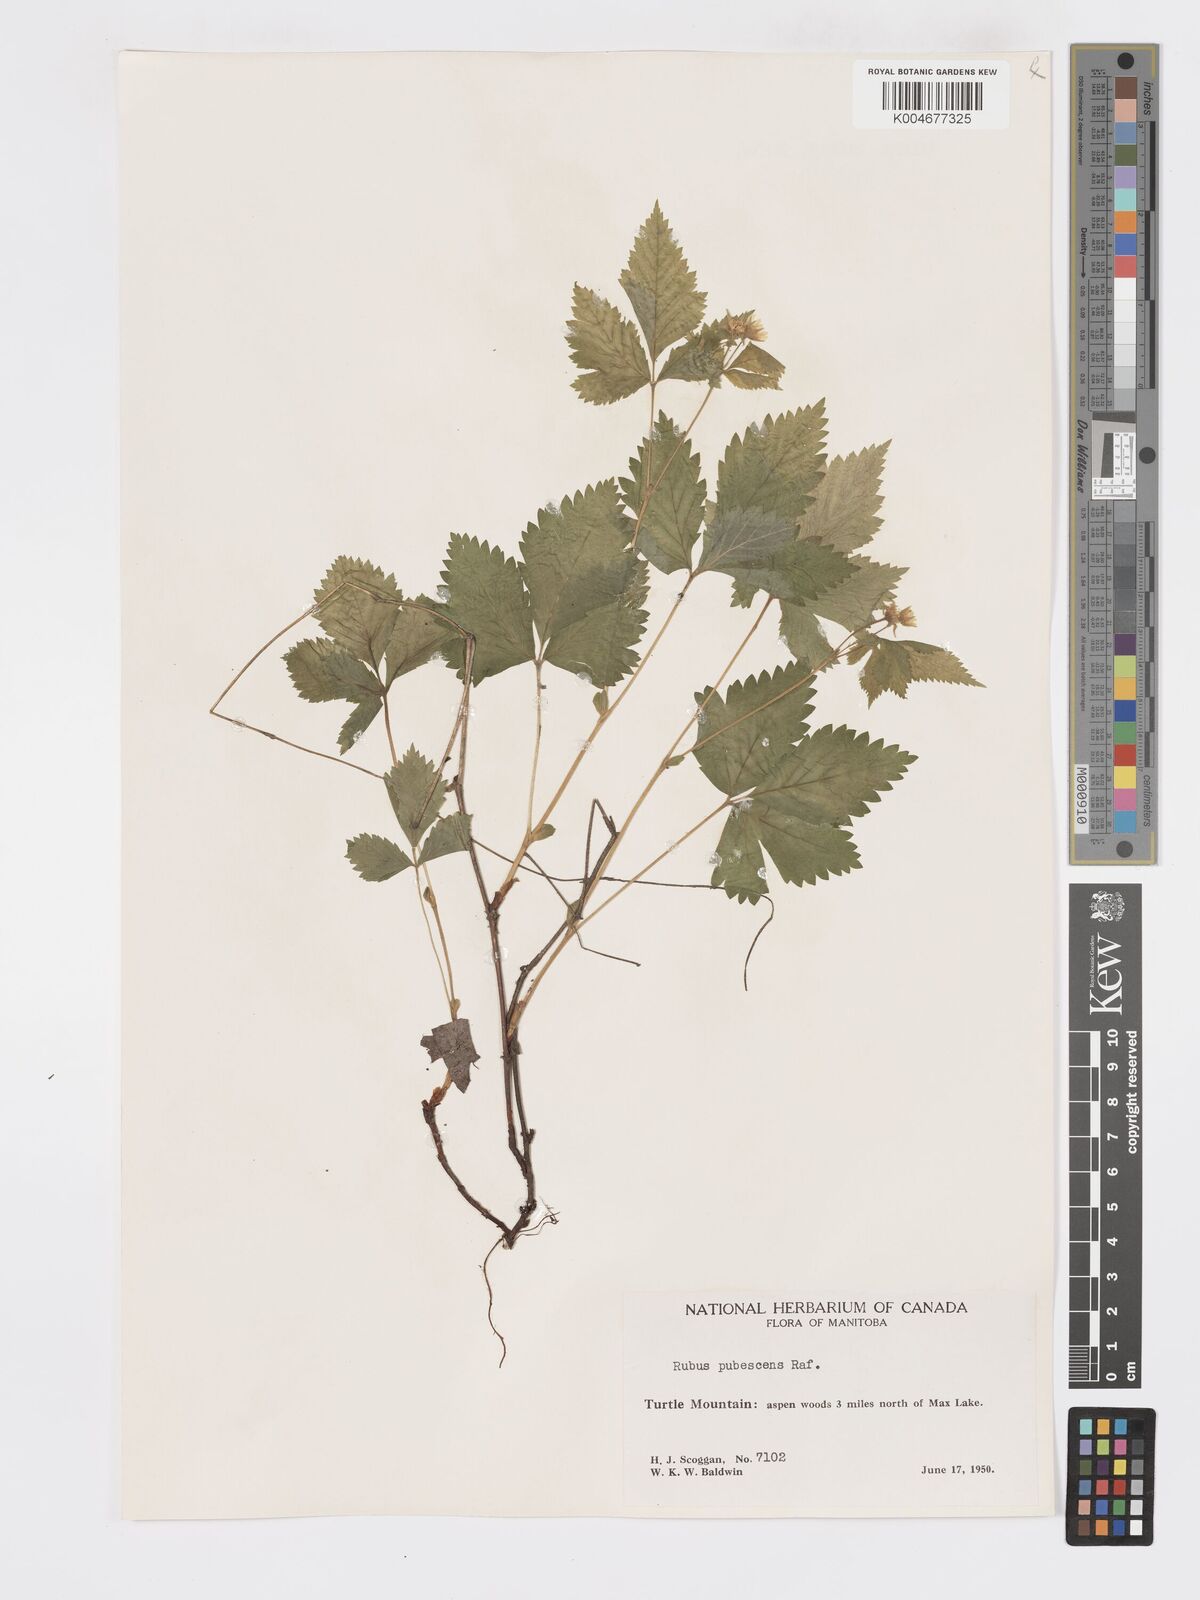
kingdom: Plantae
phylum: Tracheophyta
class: Magnoliopsida
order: Rosales
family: Rosaceae
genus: Rubus
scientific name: Rubus
